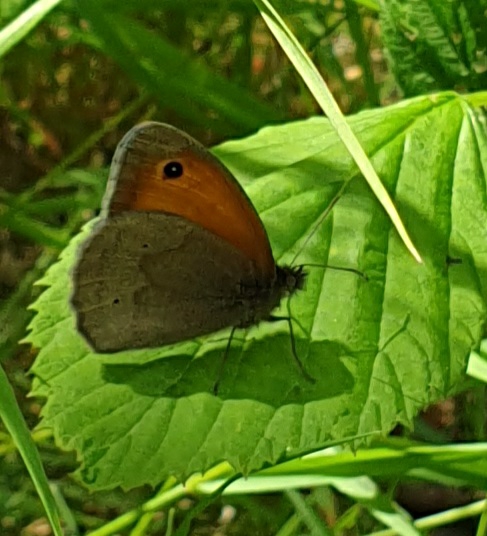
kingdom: Animalia
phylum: Arthropoda
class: Insecta
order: Lepidoptera
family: Nymphalidae
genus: Maniola
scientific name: Maniola jurtina
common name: Græsrandøje
